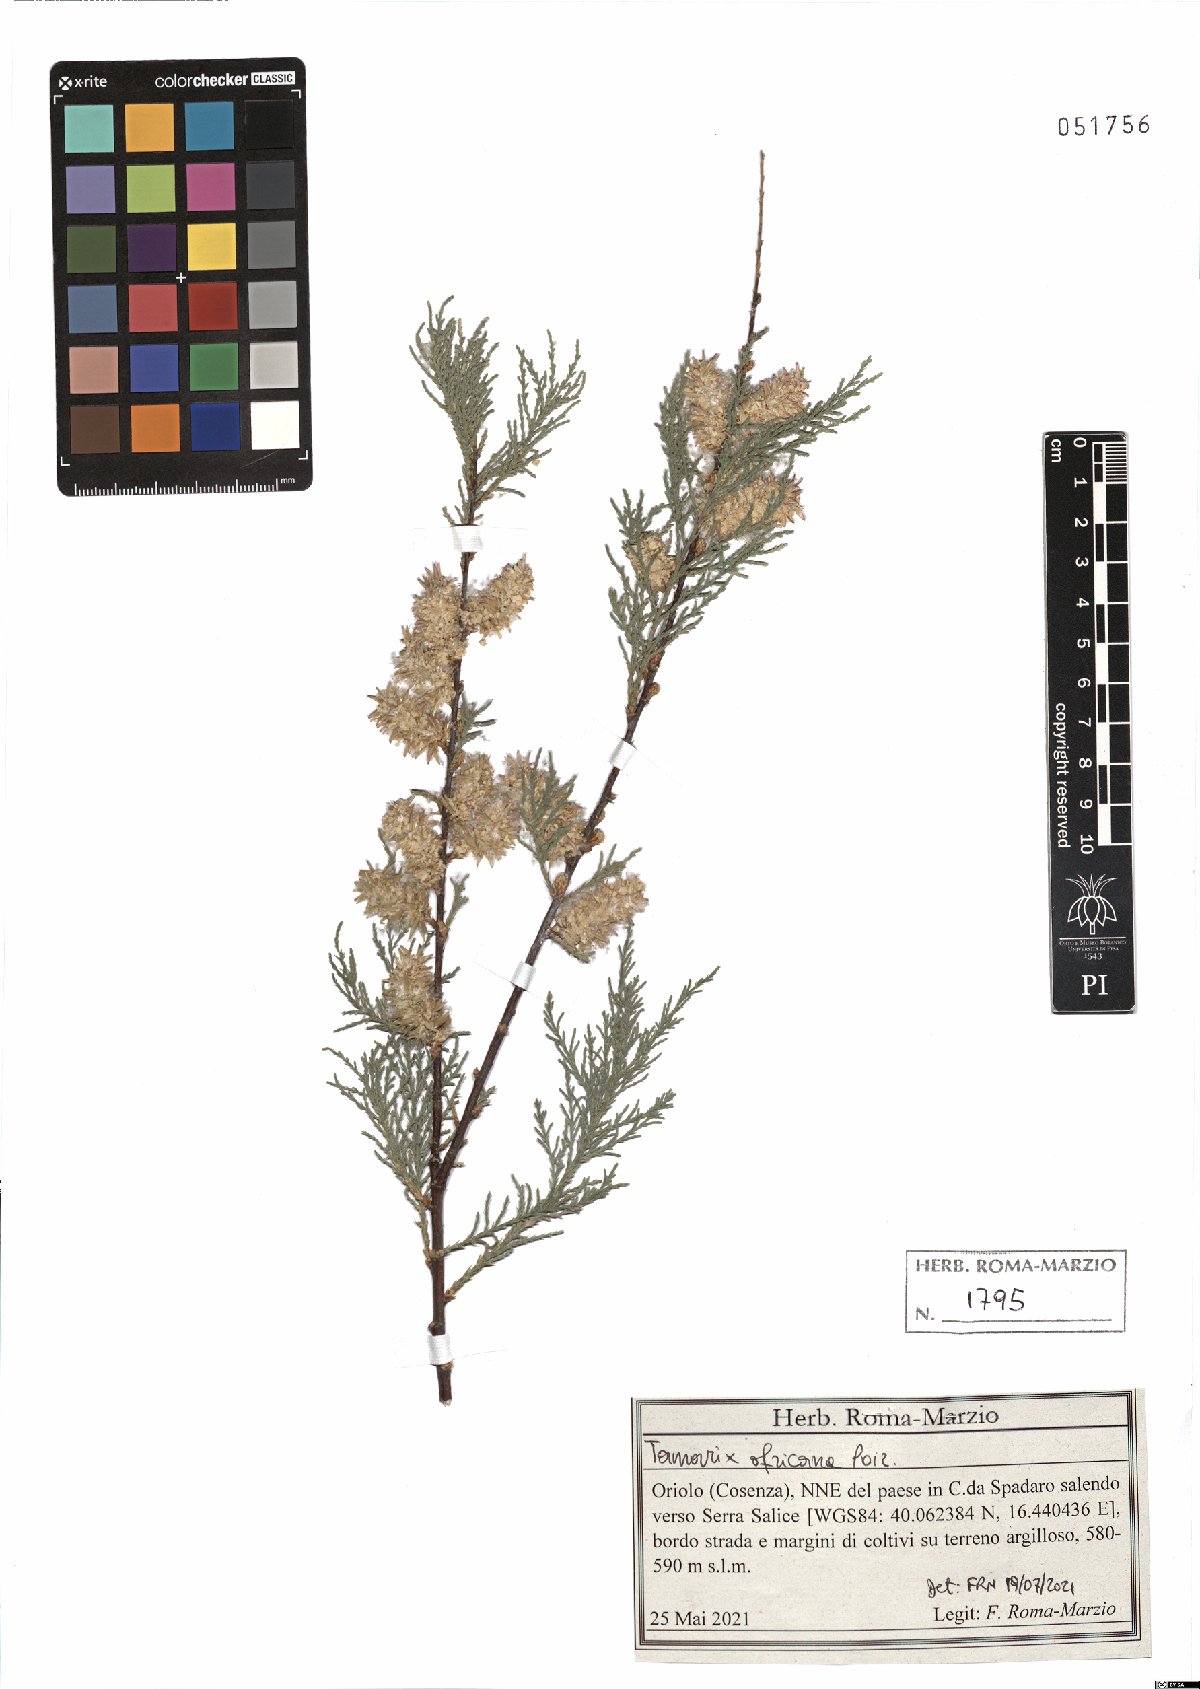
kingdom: Plantae
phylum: Tracheophyta
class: Magnoliopsida
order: Caryophyllales
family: Tamaricaceae
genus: Tamarix
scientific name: Tamarix africana
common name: African tamarisk
